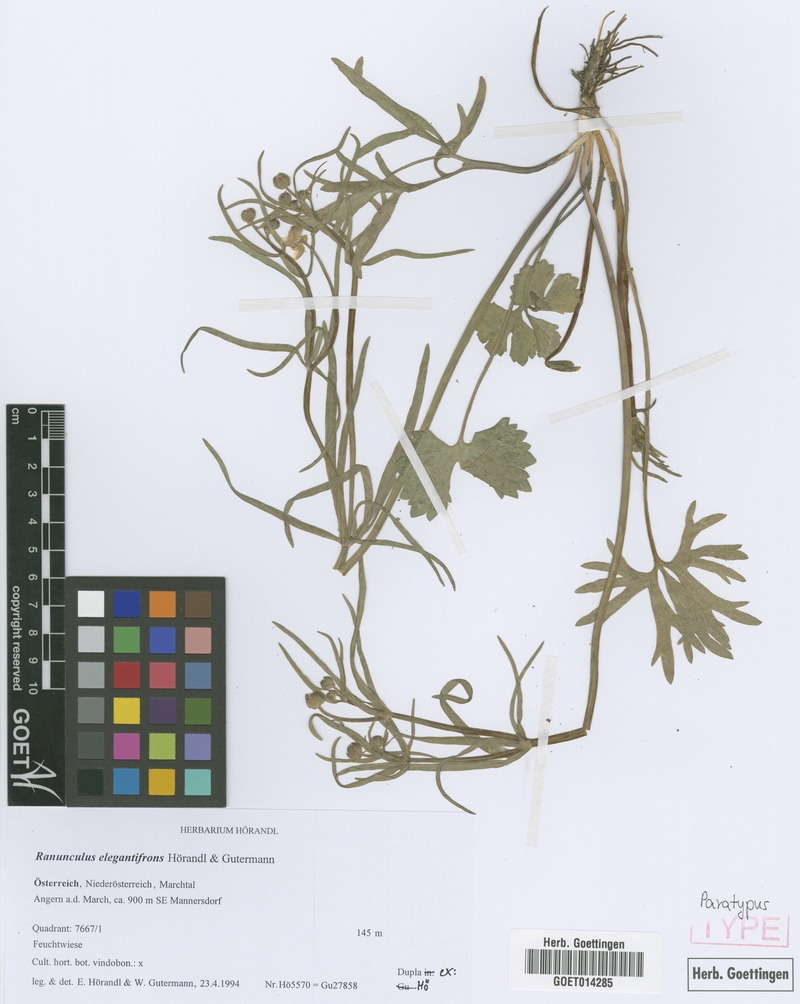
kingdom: Plantae
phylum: Tracheophyta
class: Magnoliopsida
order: Ranunculales
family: Ranunculaceae
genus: Ranunculus
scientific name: Ranunculus elegantifrons
